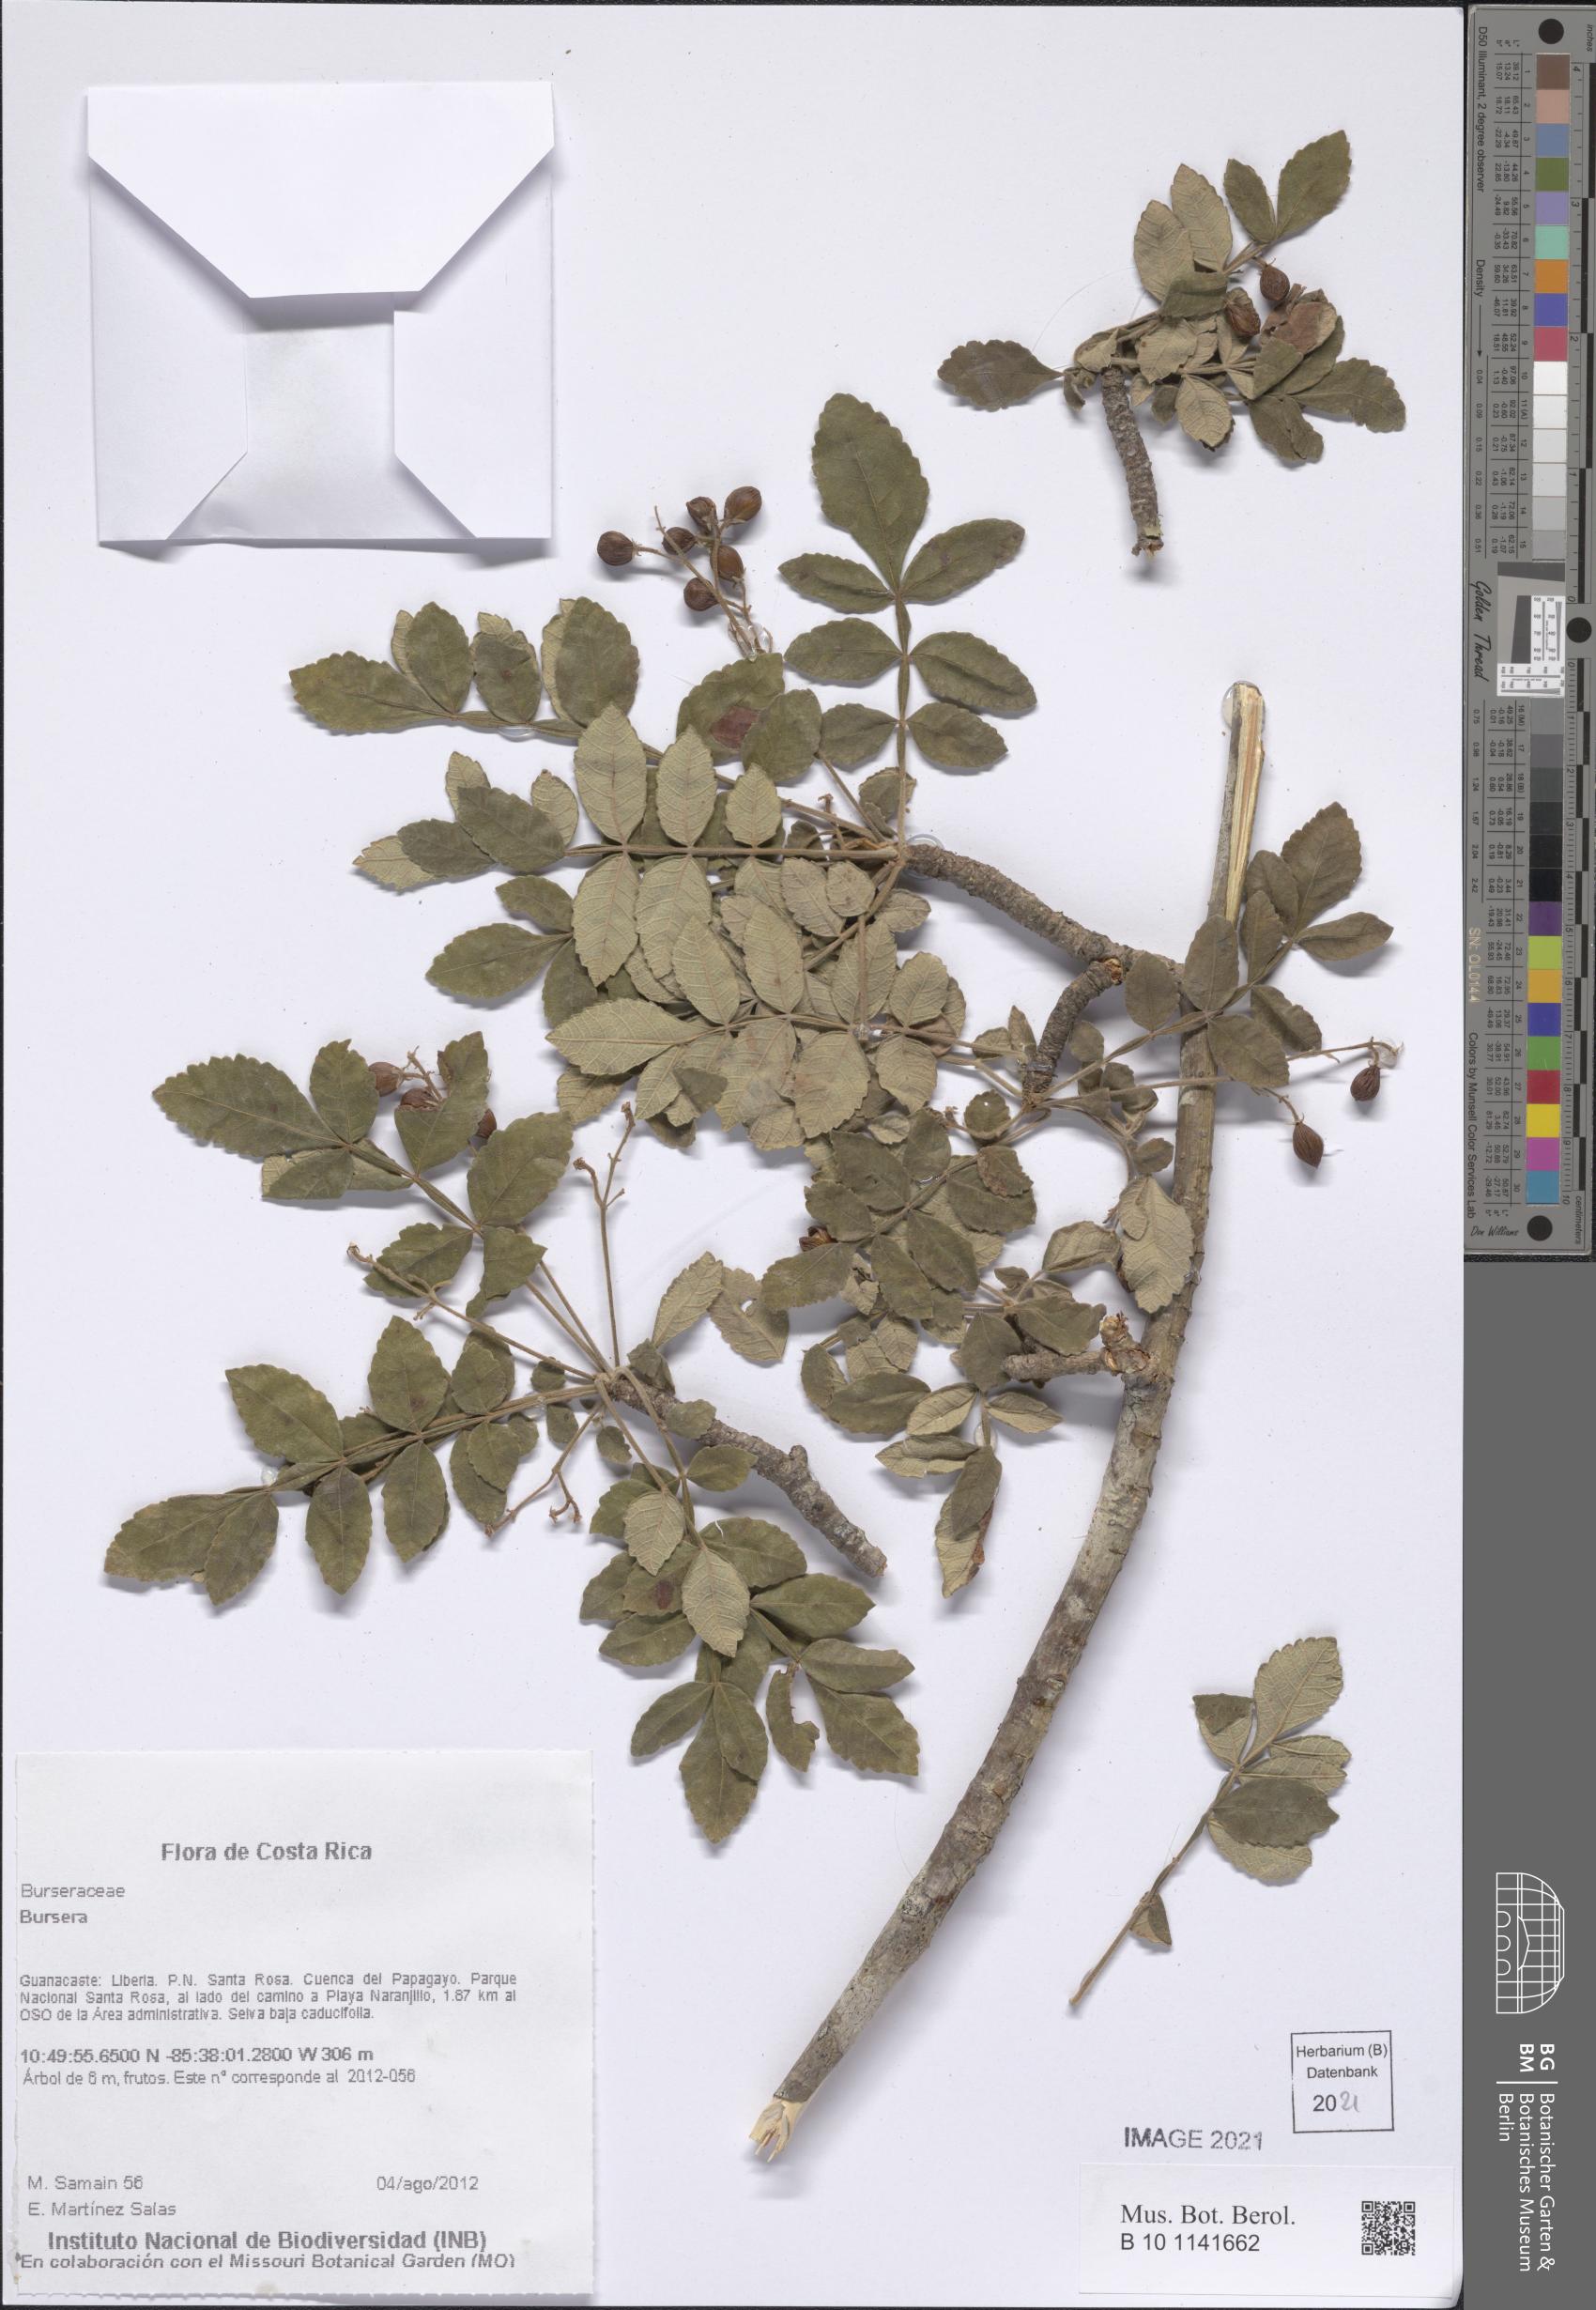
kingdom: Plantae
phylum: Tracheophyta
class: Magnoliopsida
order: Sapindales
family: Burseraceae
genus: Bursera
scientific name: Bursera tomentosa
